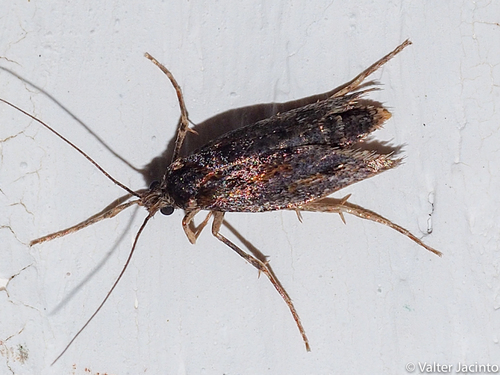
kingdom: Animalia
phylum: Arthropoda
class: Insecta
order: Lepidoptera
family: Eriocottidae
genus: Deuterotinea
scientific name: Deuterotinea paradoxella
